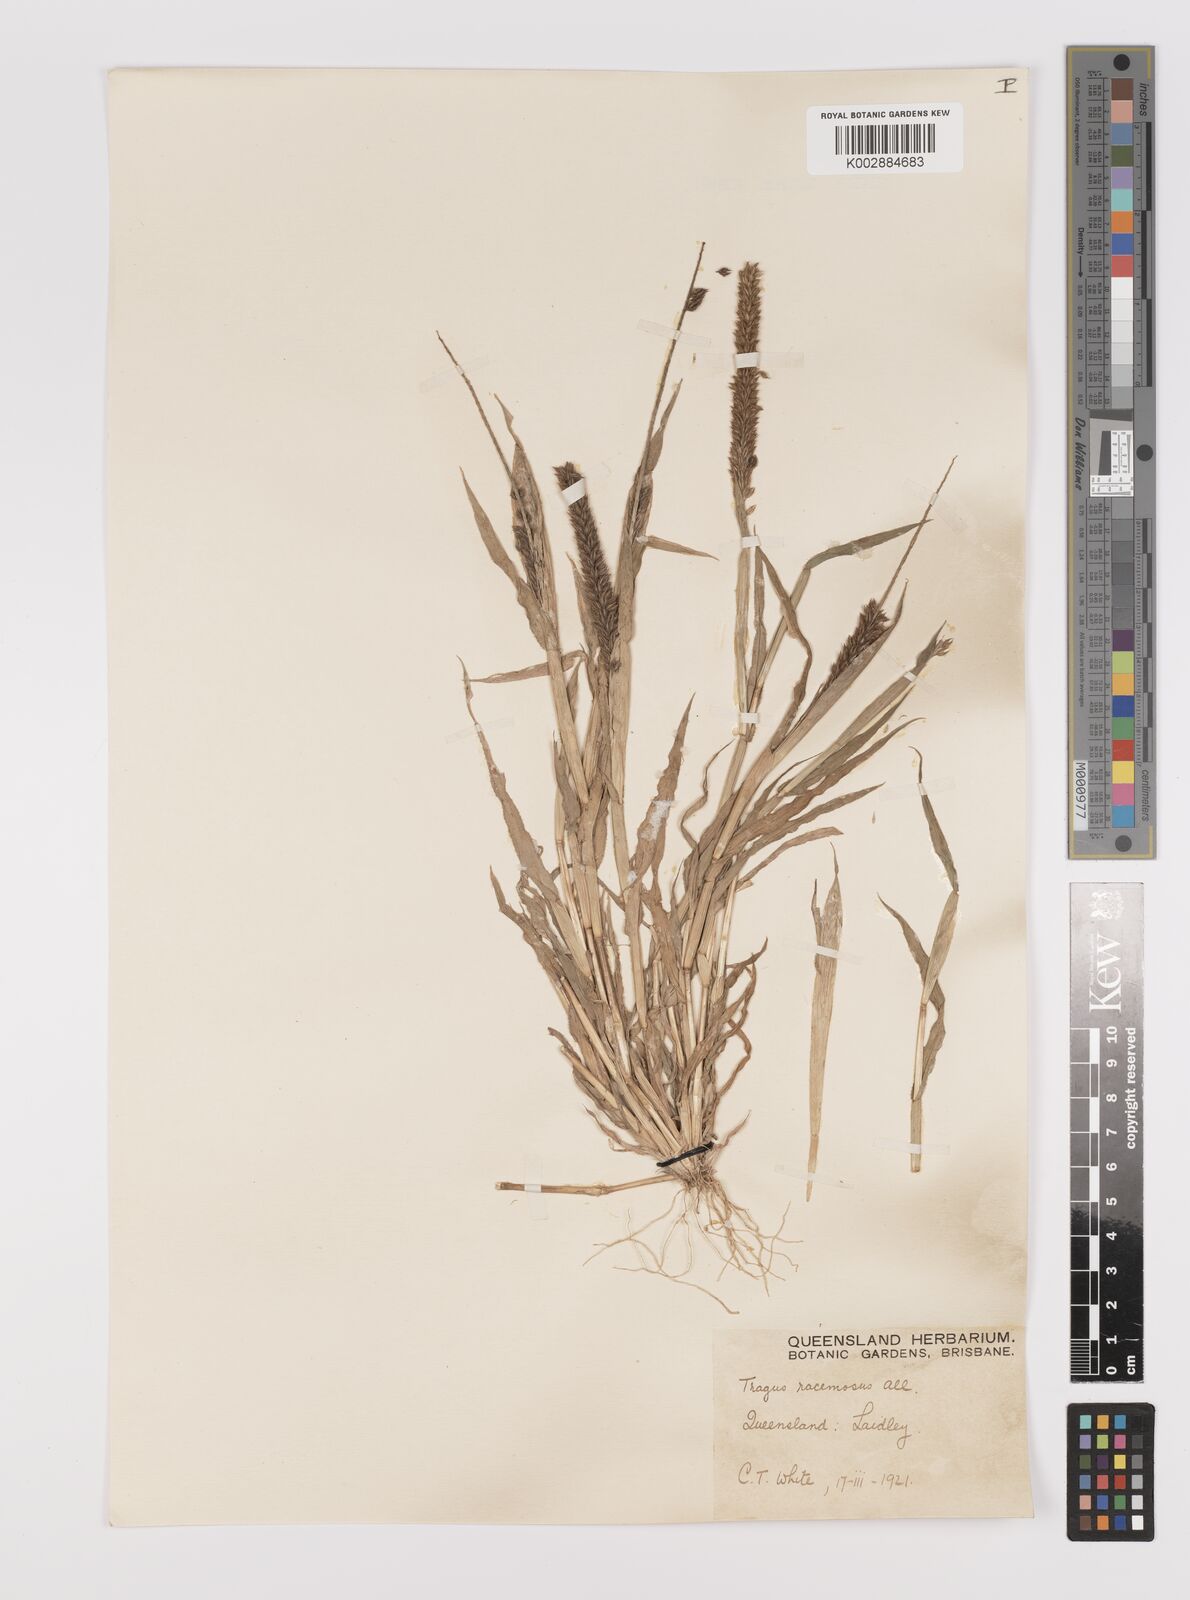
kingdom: Plantae
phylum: Tracheophyta
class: Liliopsida
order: Poales
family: Poaceae
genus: Tragus
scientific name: Tragus australianus
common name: Australian bur-grass
